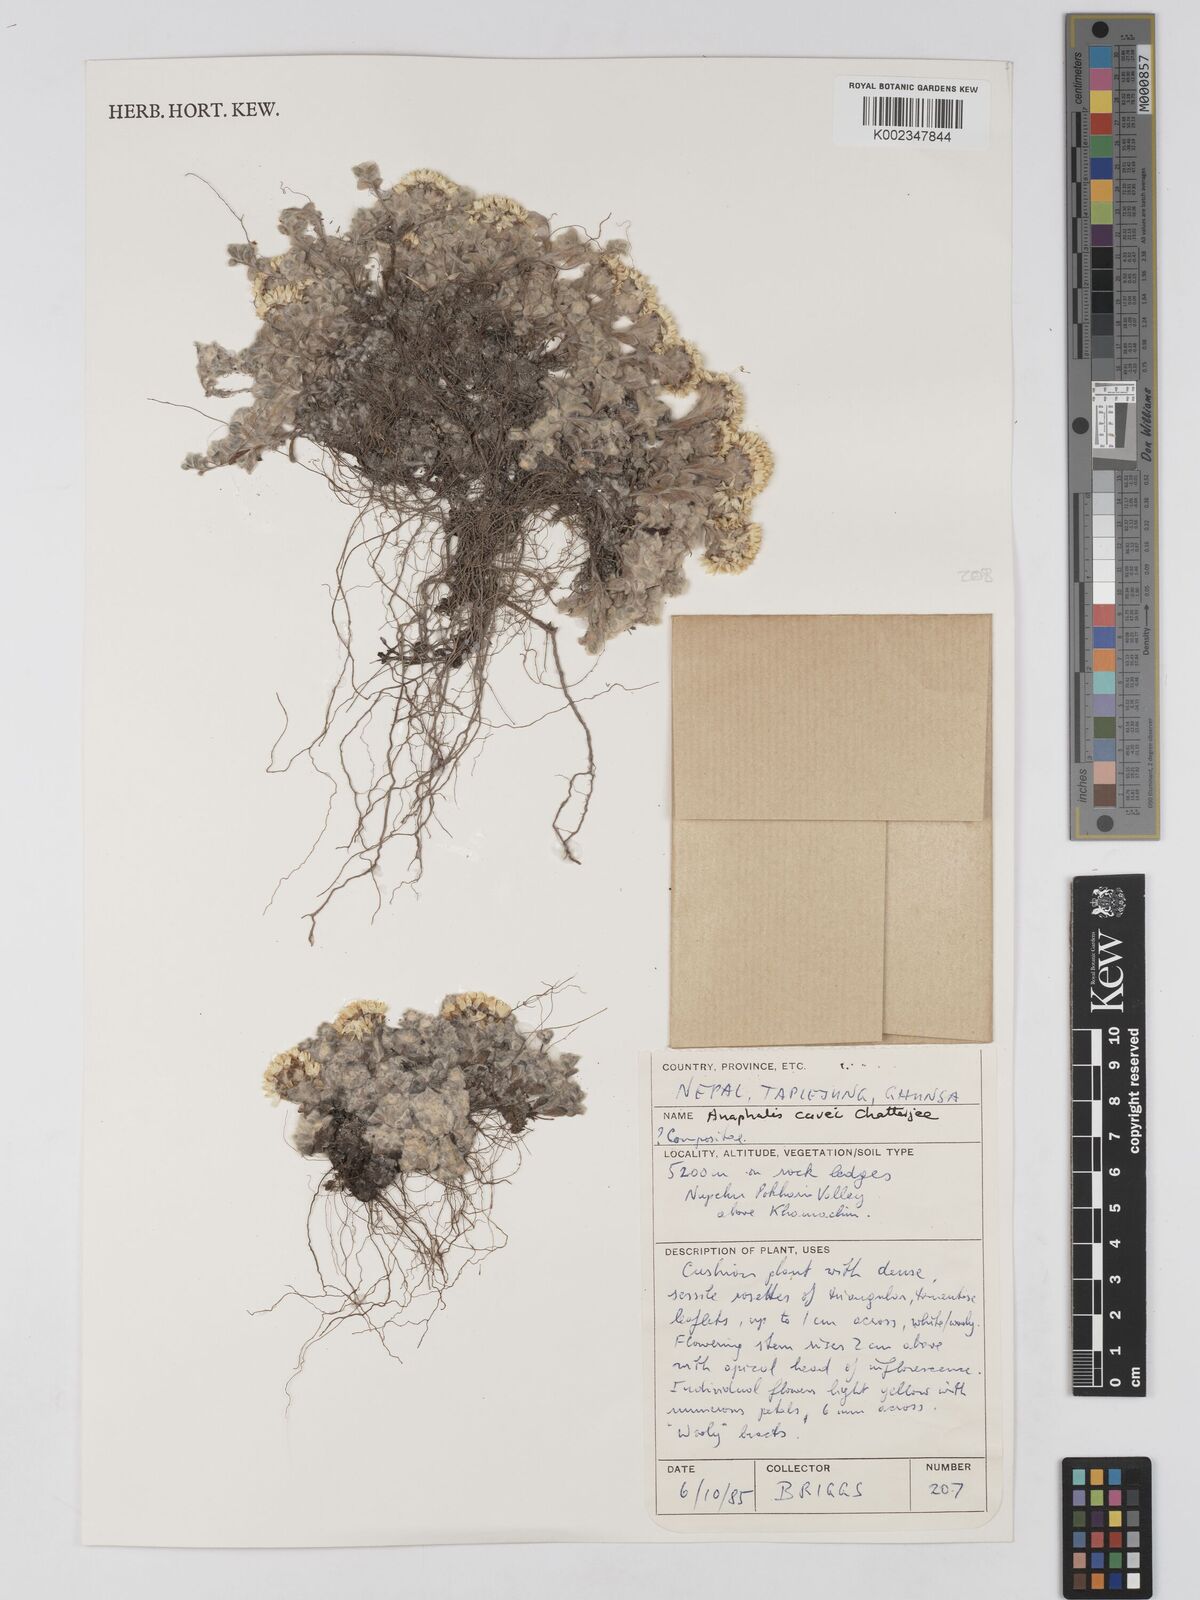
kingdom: Plantae
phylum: Tracheophyta
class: Magnoliopsida
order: Asterales
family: Asteraceae
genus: Anaphalis
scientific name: Anaphalis cavei
